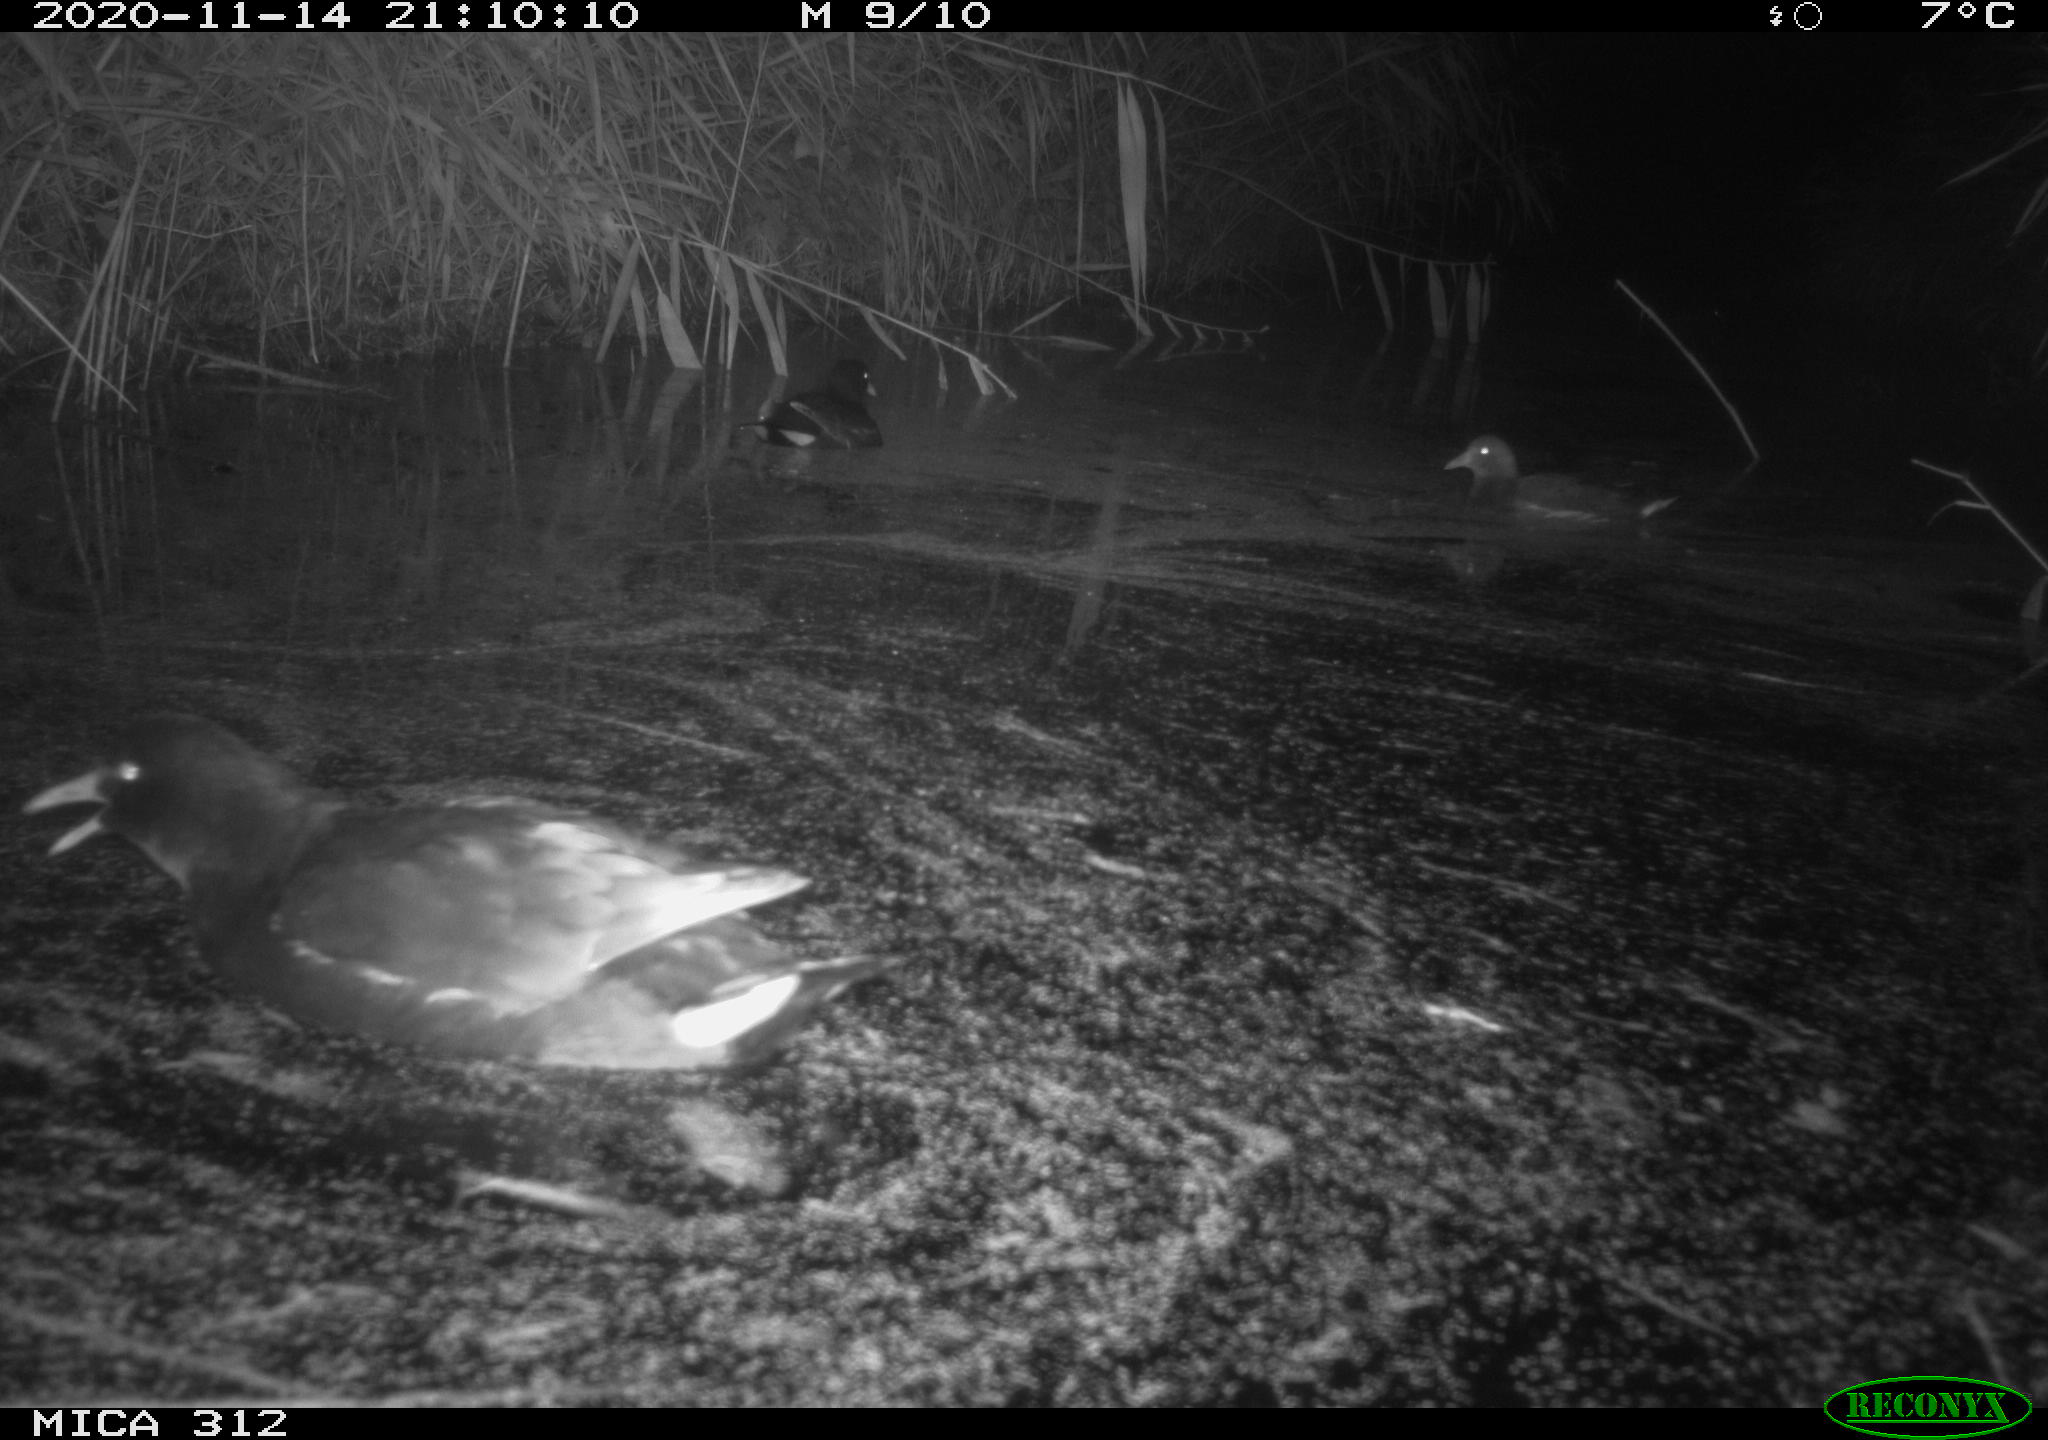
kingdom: Animalia
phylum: Chordata
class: Aves
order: Gruiformes
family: Rallidae
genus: Gallinula
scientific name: Gallinula chloropus
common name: Common moorhen
